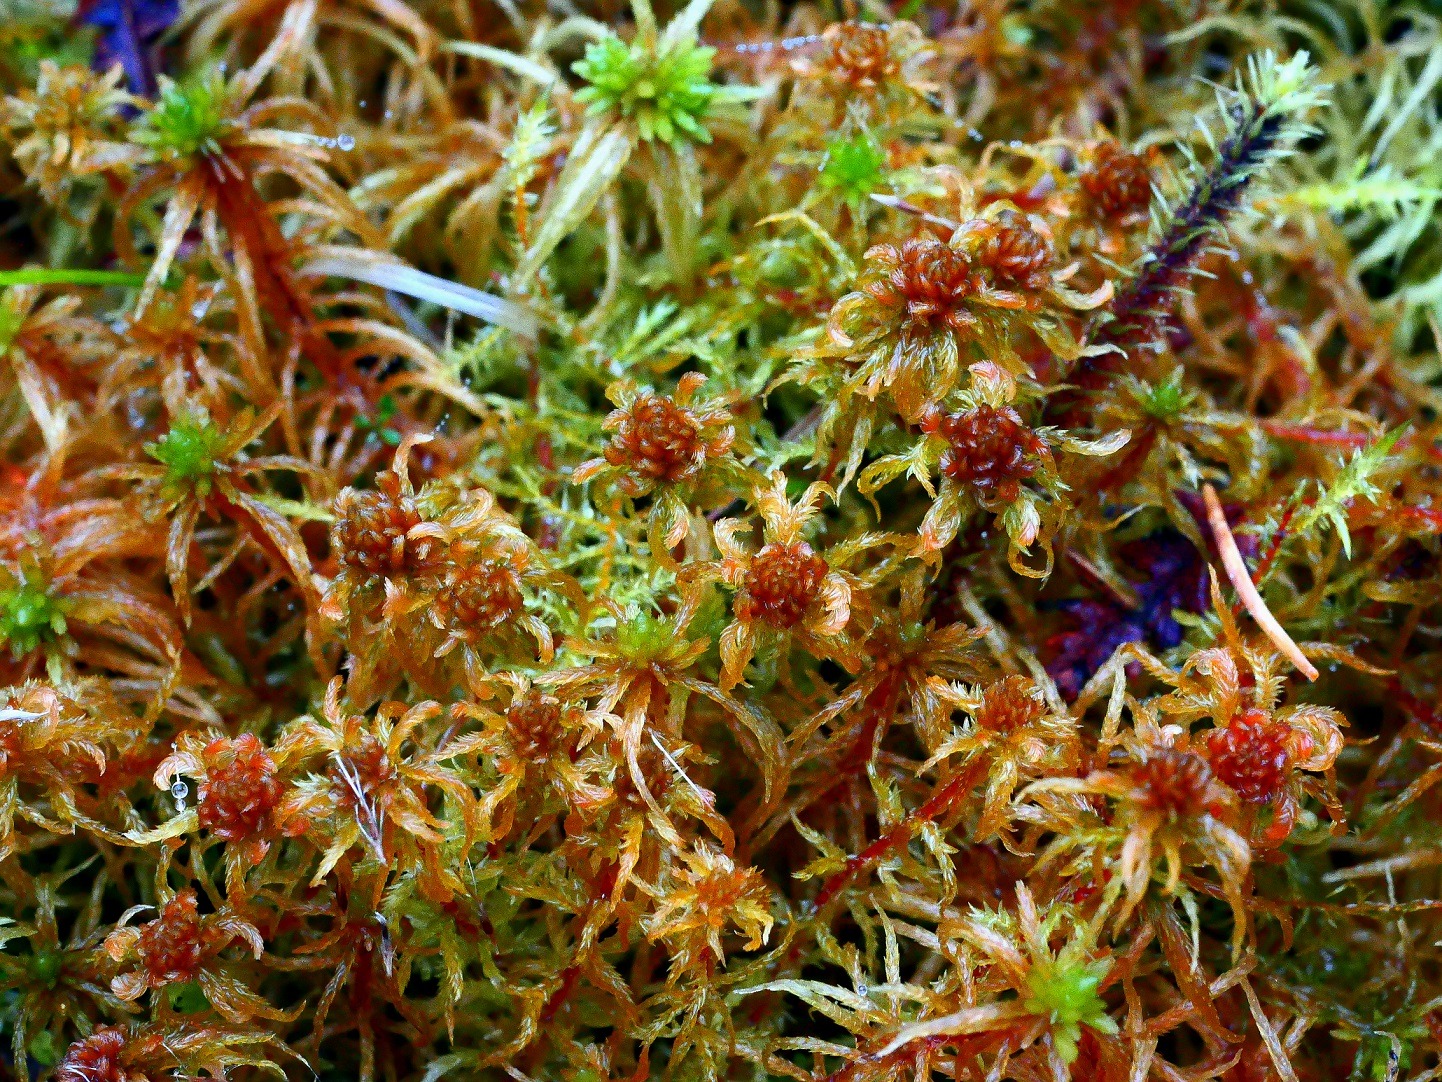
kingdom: Plantae
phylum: Bryophyta
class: Sphagnopsida
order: Sphagnales
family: Sphagnaceae
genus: Sphagnum
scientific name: Sphagnum contortum
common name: Krumbladet tørvemos
